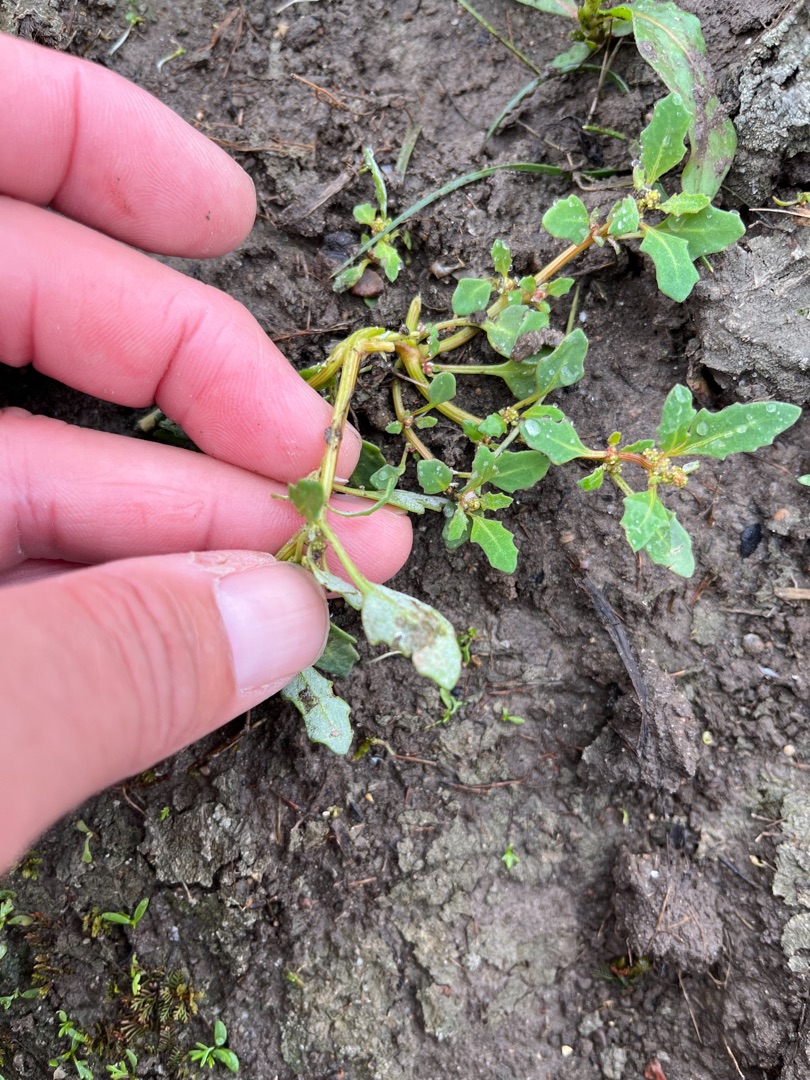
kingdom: Plantae
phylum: Tracheophyta
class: Magnoliopsida
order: Caryophyllales
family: Amaranthaceae
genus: Oxybasis
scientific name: Oxybasis glauca
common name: Blågrøn gåsefod
